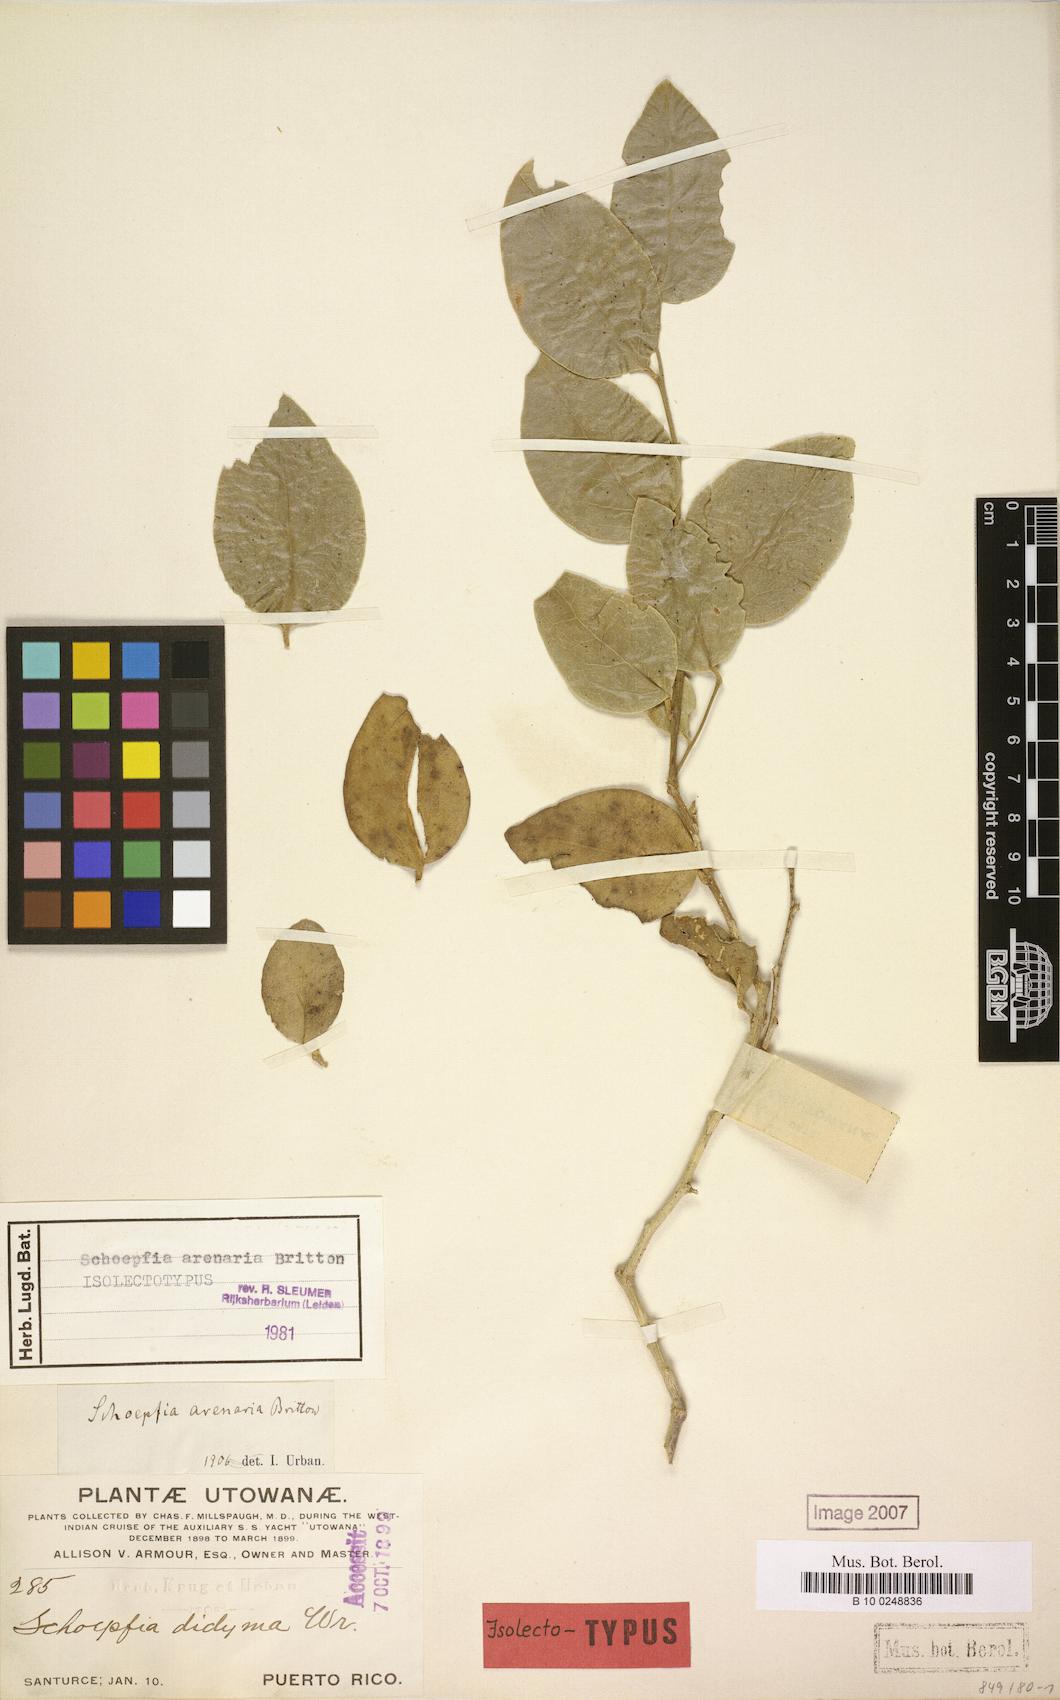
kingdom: Plantae
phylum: Tracheophyta
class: Magnoliopsida
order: Santalales
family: Schoepfiaceae
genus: Schoepfia
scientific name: Schoepfia arenaria
